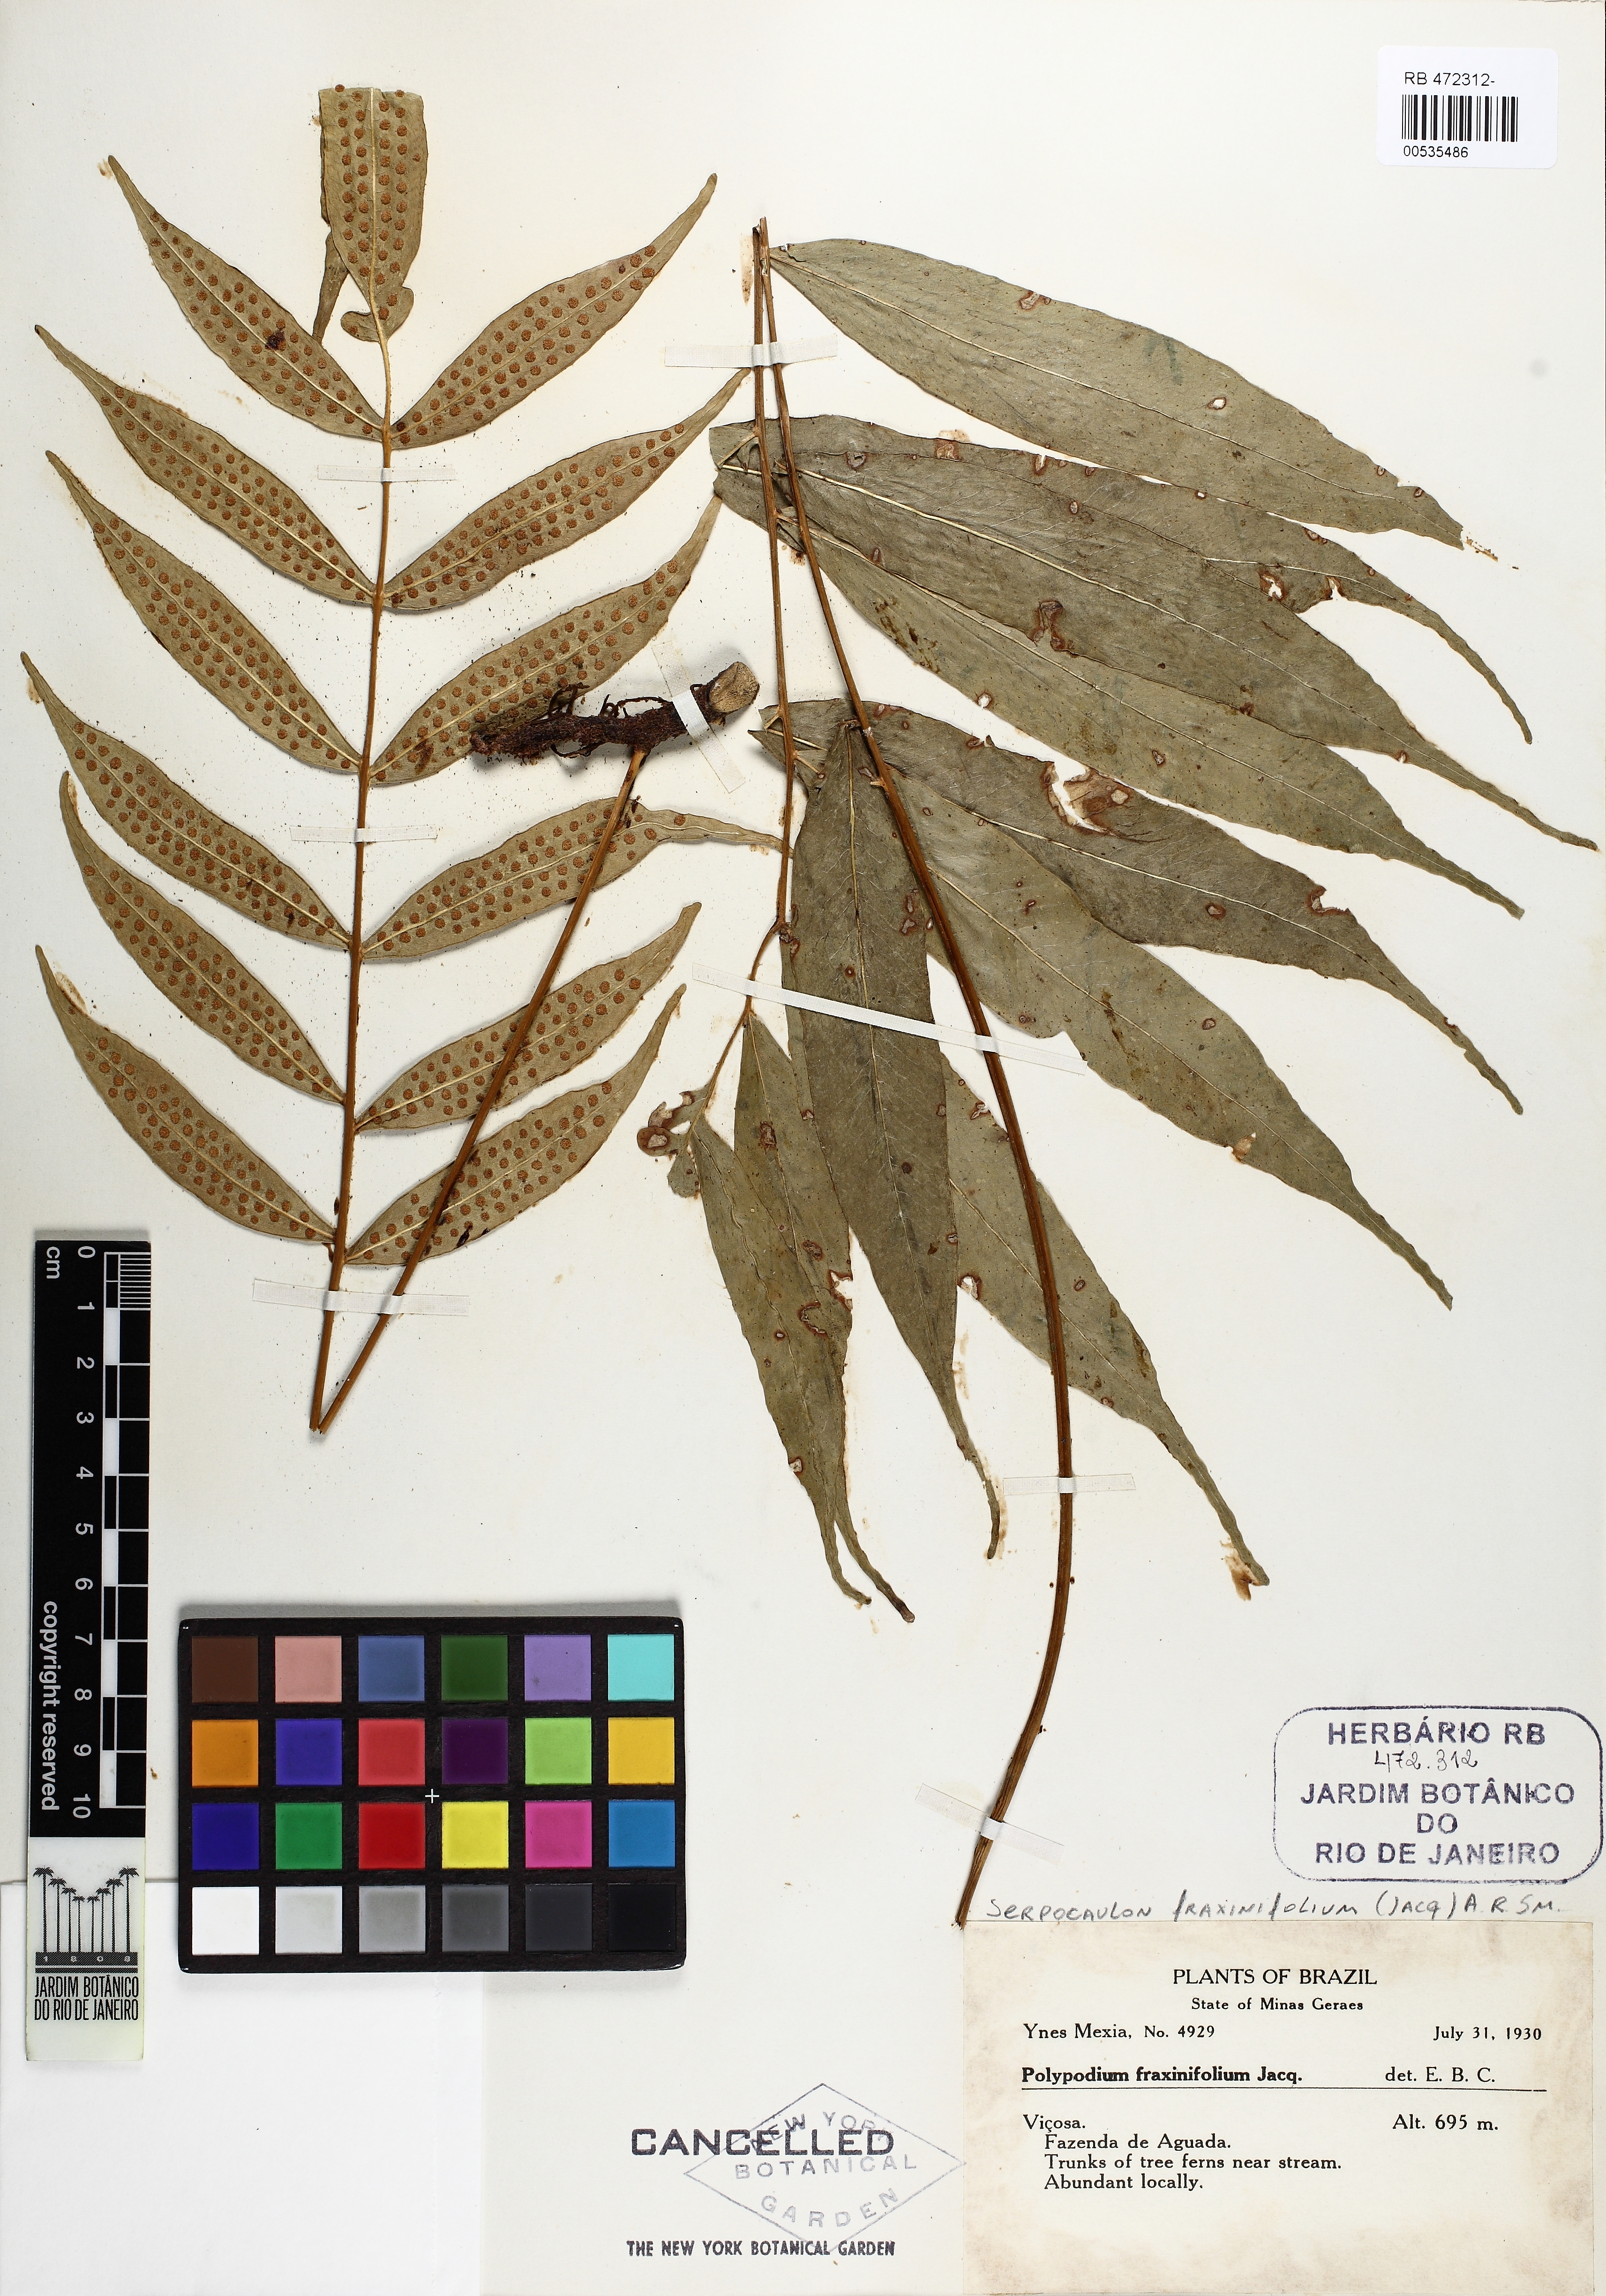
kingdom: Plantae
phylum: Tracheophyta
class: Polypodiopsida
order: Polypodiales
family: Polypodiaceae
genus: Serpocaulon
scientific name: Serpocaulon fraxinifolium
